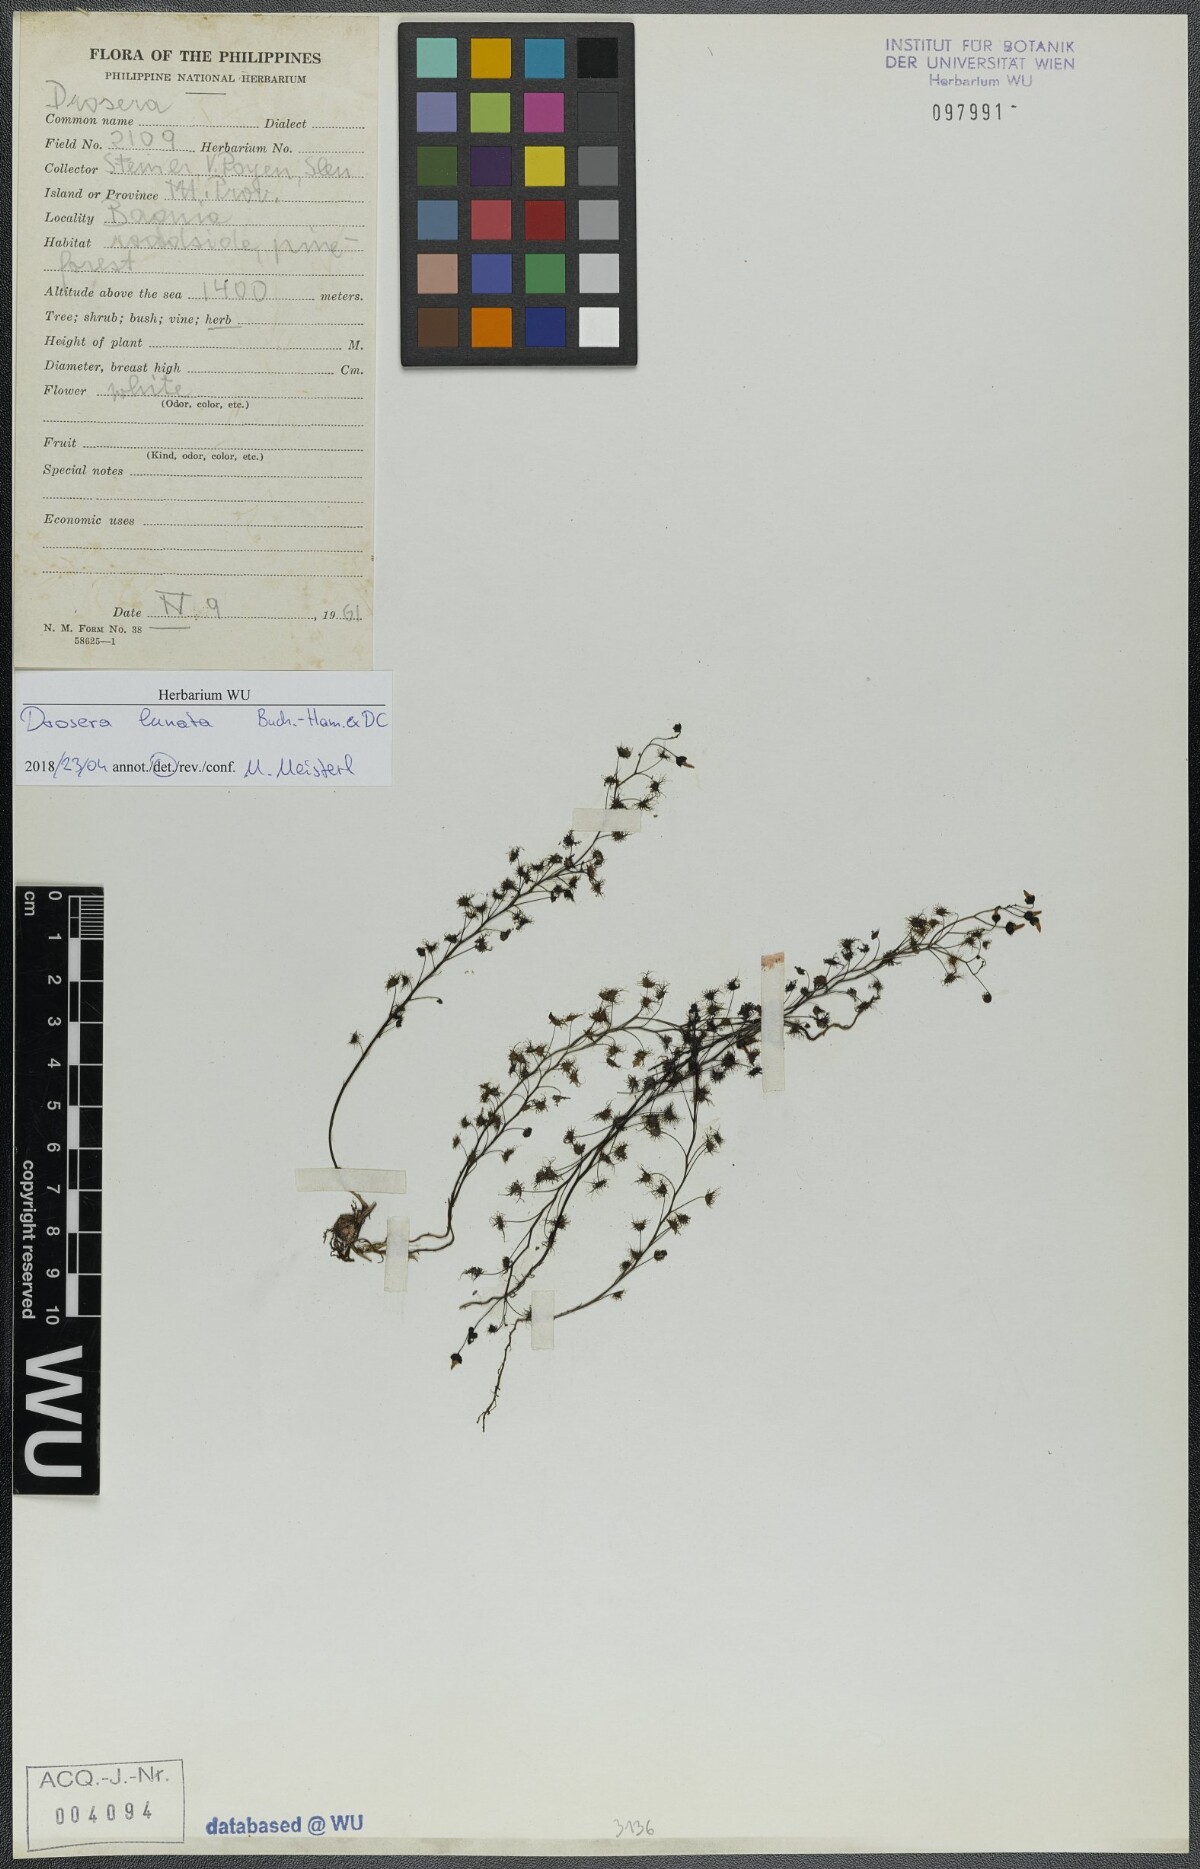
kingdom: Plantae
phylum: Tracheophyta
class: Magnoliopsida
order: Caryophyllales
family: Droseraceae
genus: Drosera
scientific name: Drosera peltata
